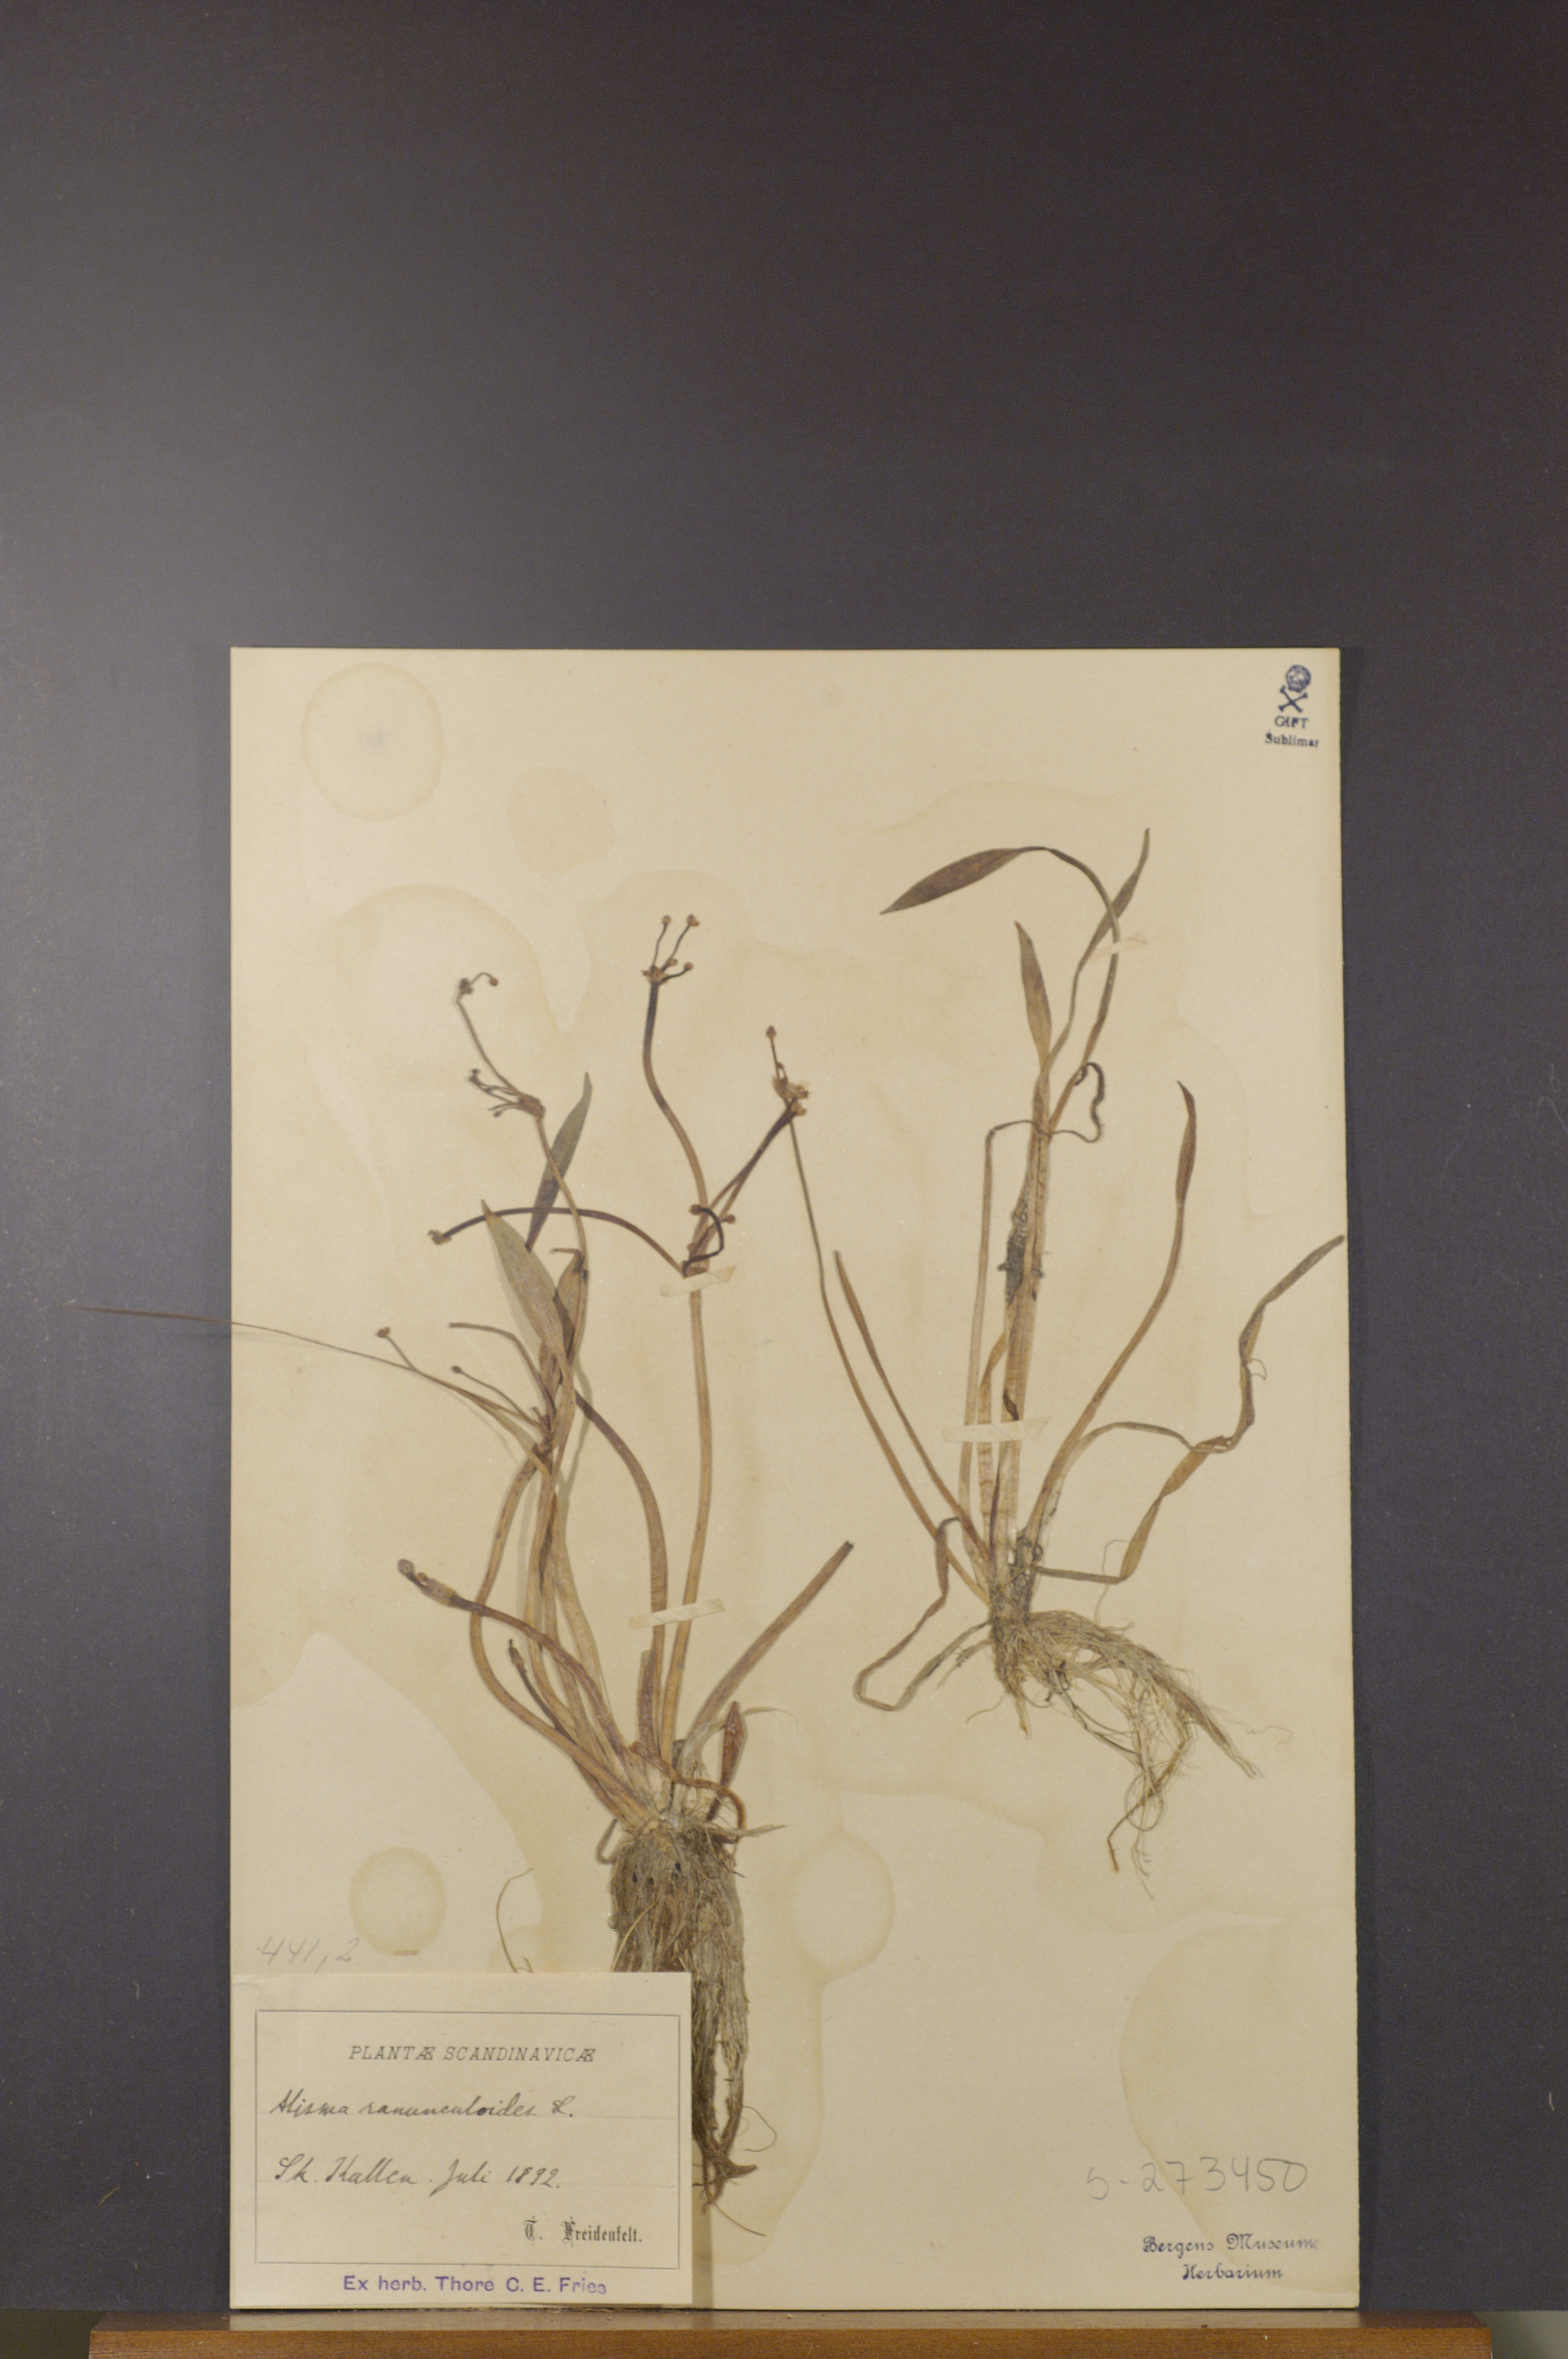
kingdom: Plantae
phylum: Tracheophyta
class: Liliopsida
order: Alismatales
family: Alismataceae
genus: Baldellia
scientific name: Baldellia ranunculoides
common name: Lesser water-plantain
